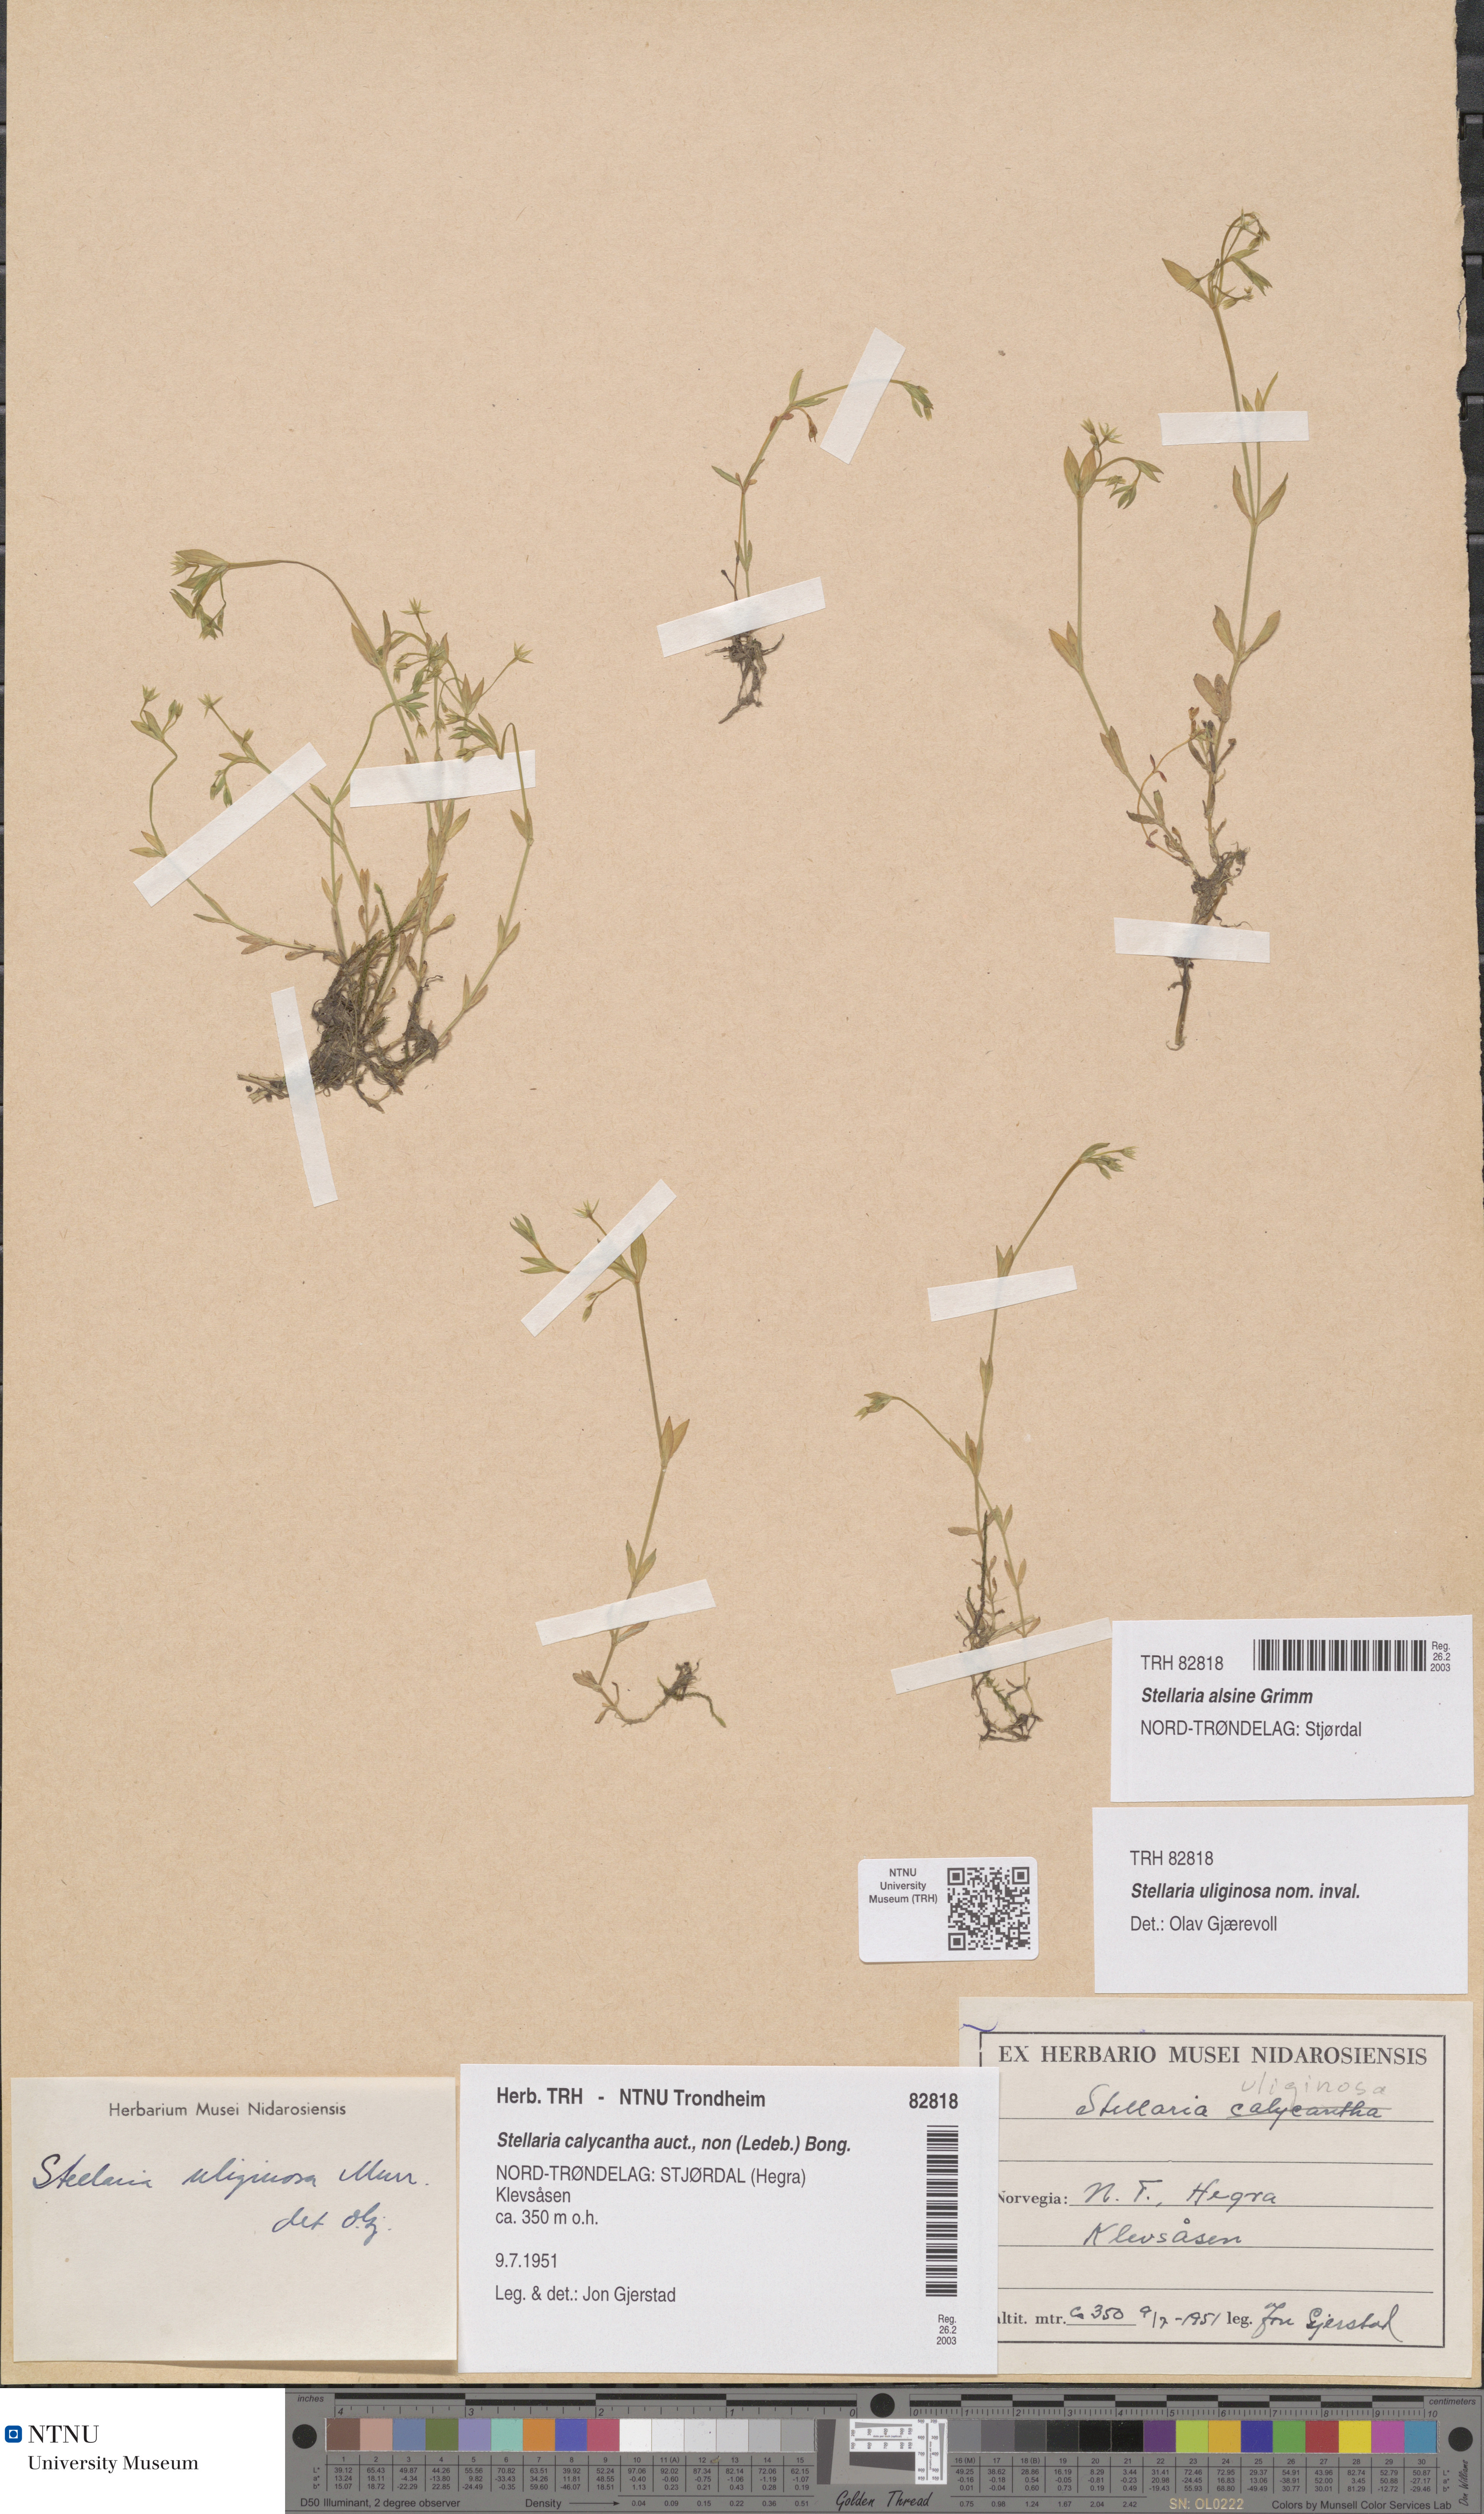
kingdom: Plantae
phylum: Tracheophyta
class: Magnoliopsida
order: Caryophyllales
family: Caryophyllaceae
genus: Stellaria
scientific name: Stellaria alsine
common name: Bog stitchwort
